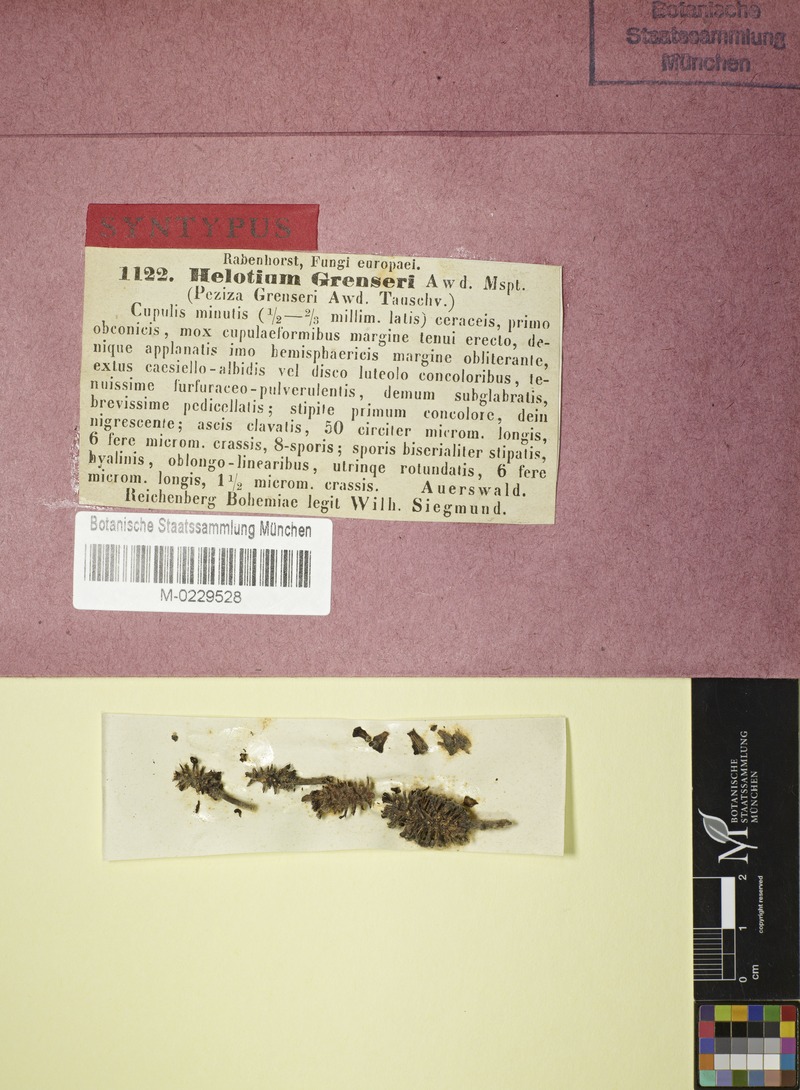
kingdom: Fungi
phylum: Ascomycota
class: Leotiomycetes
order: Helotiales
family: Pezizellaceae
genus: Calycina
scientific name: Calycina alniella
